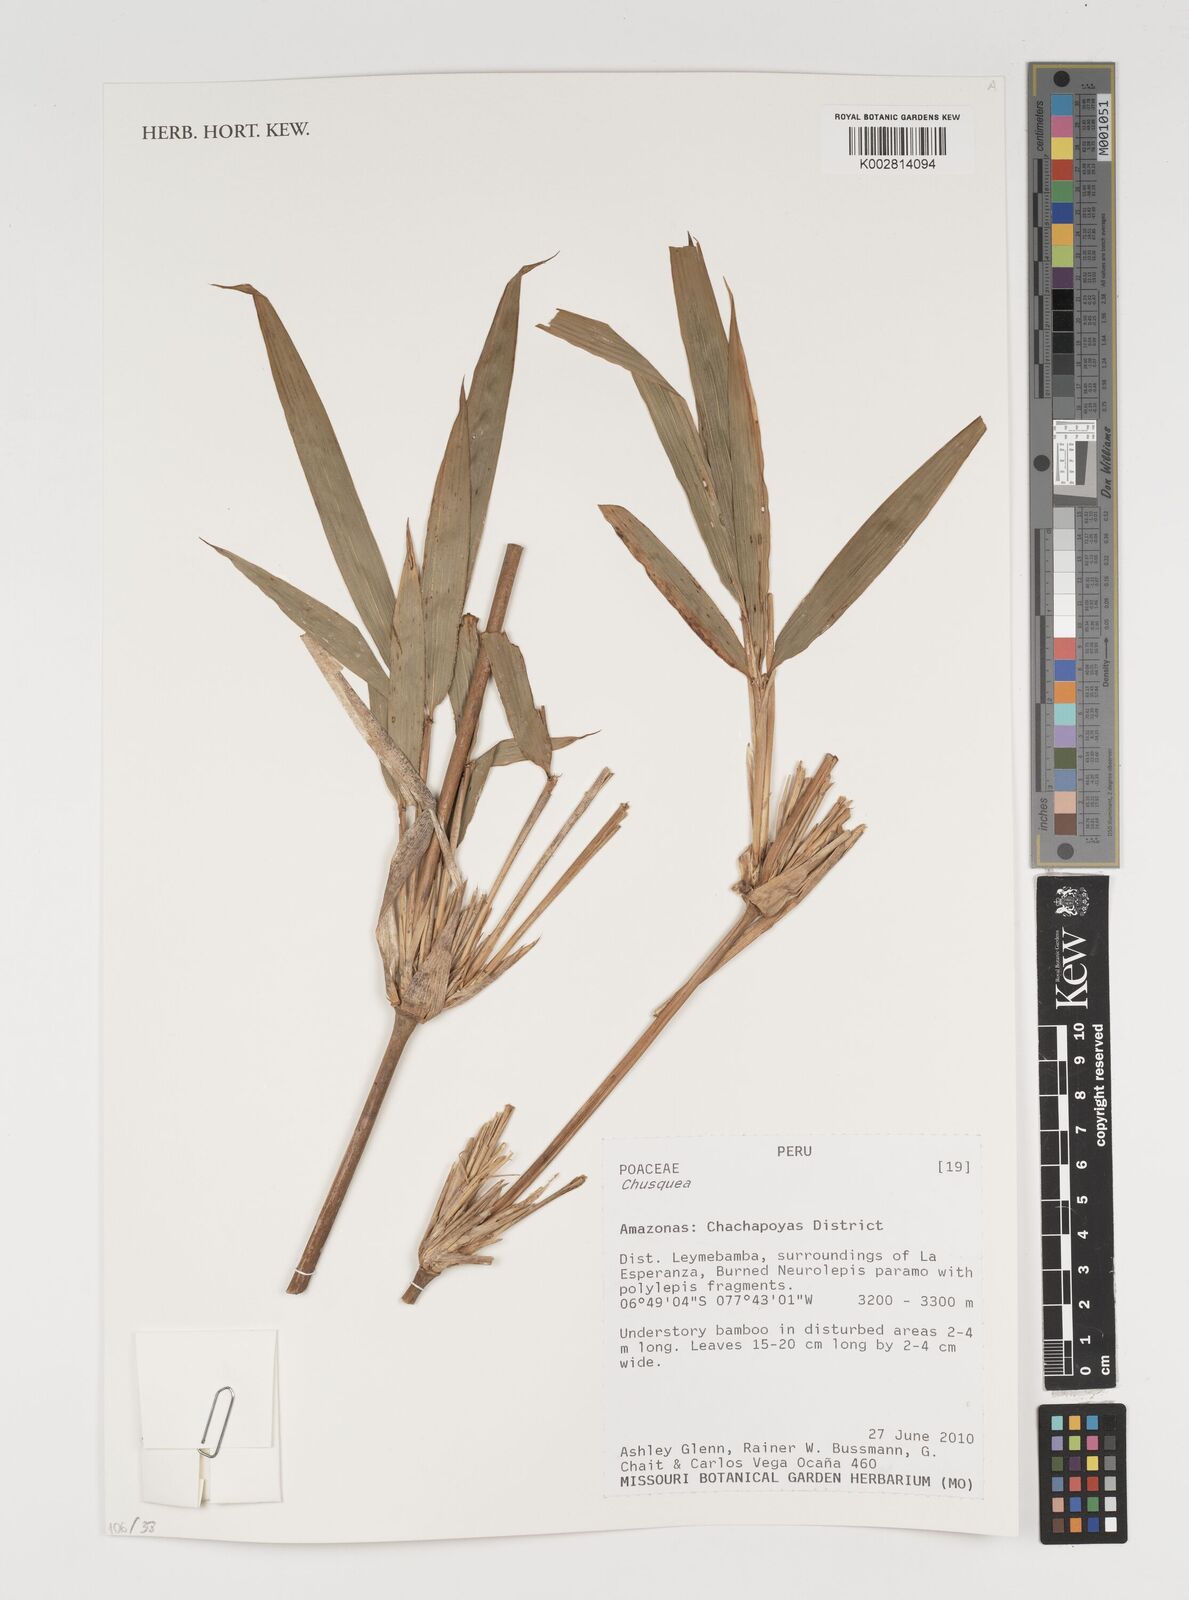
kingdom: Plantae
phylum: Tracheophyta
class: Liliopsida
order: Poales
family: Poaceae
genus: Chusquea
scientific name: Chusquea
